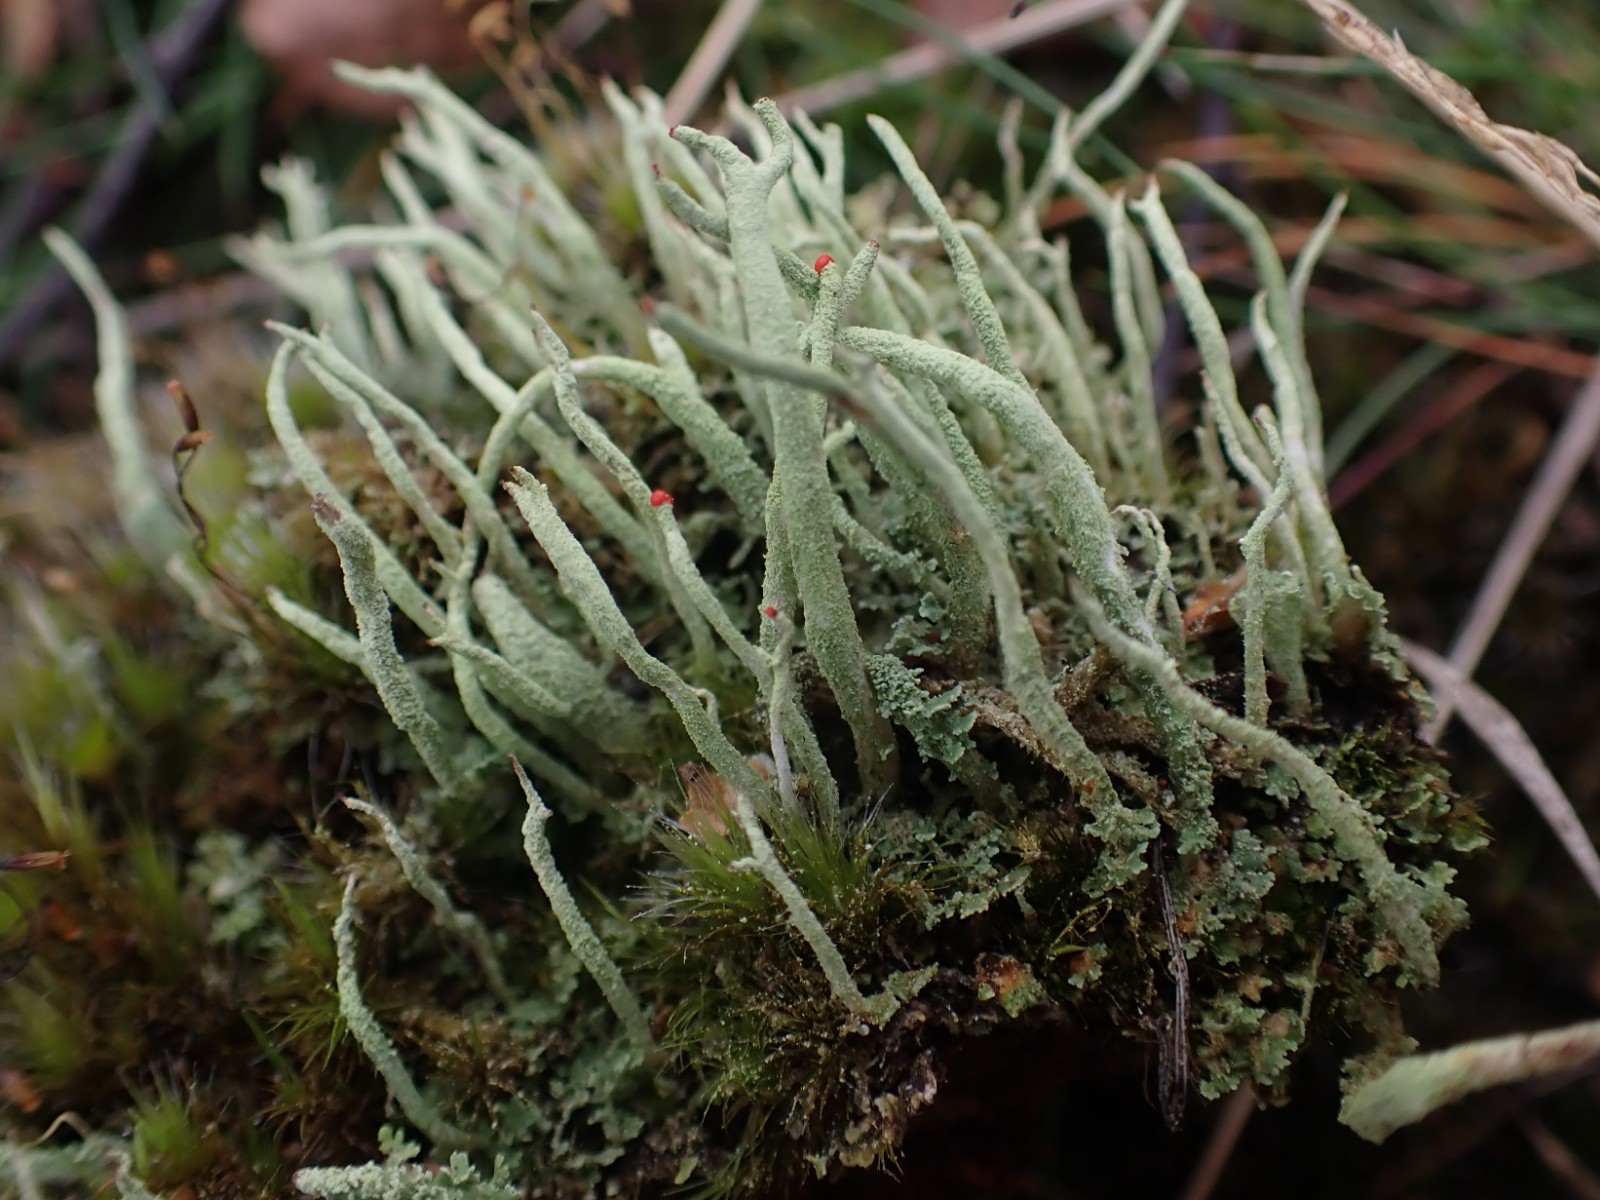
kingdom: Fungi
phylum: Ascomycota
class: Lecanoromycetes
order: Lecanorales
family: Cladoniaceae
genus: Cladonia
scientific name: Cladonia macilenta
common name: indsvunden bægerlav
